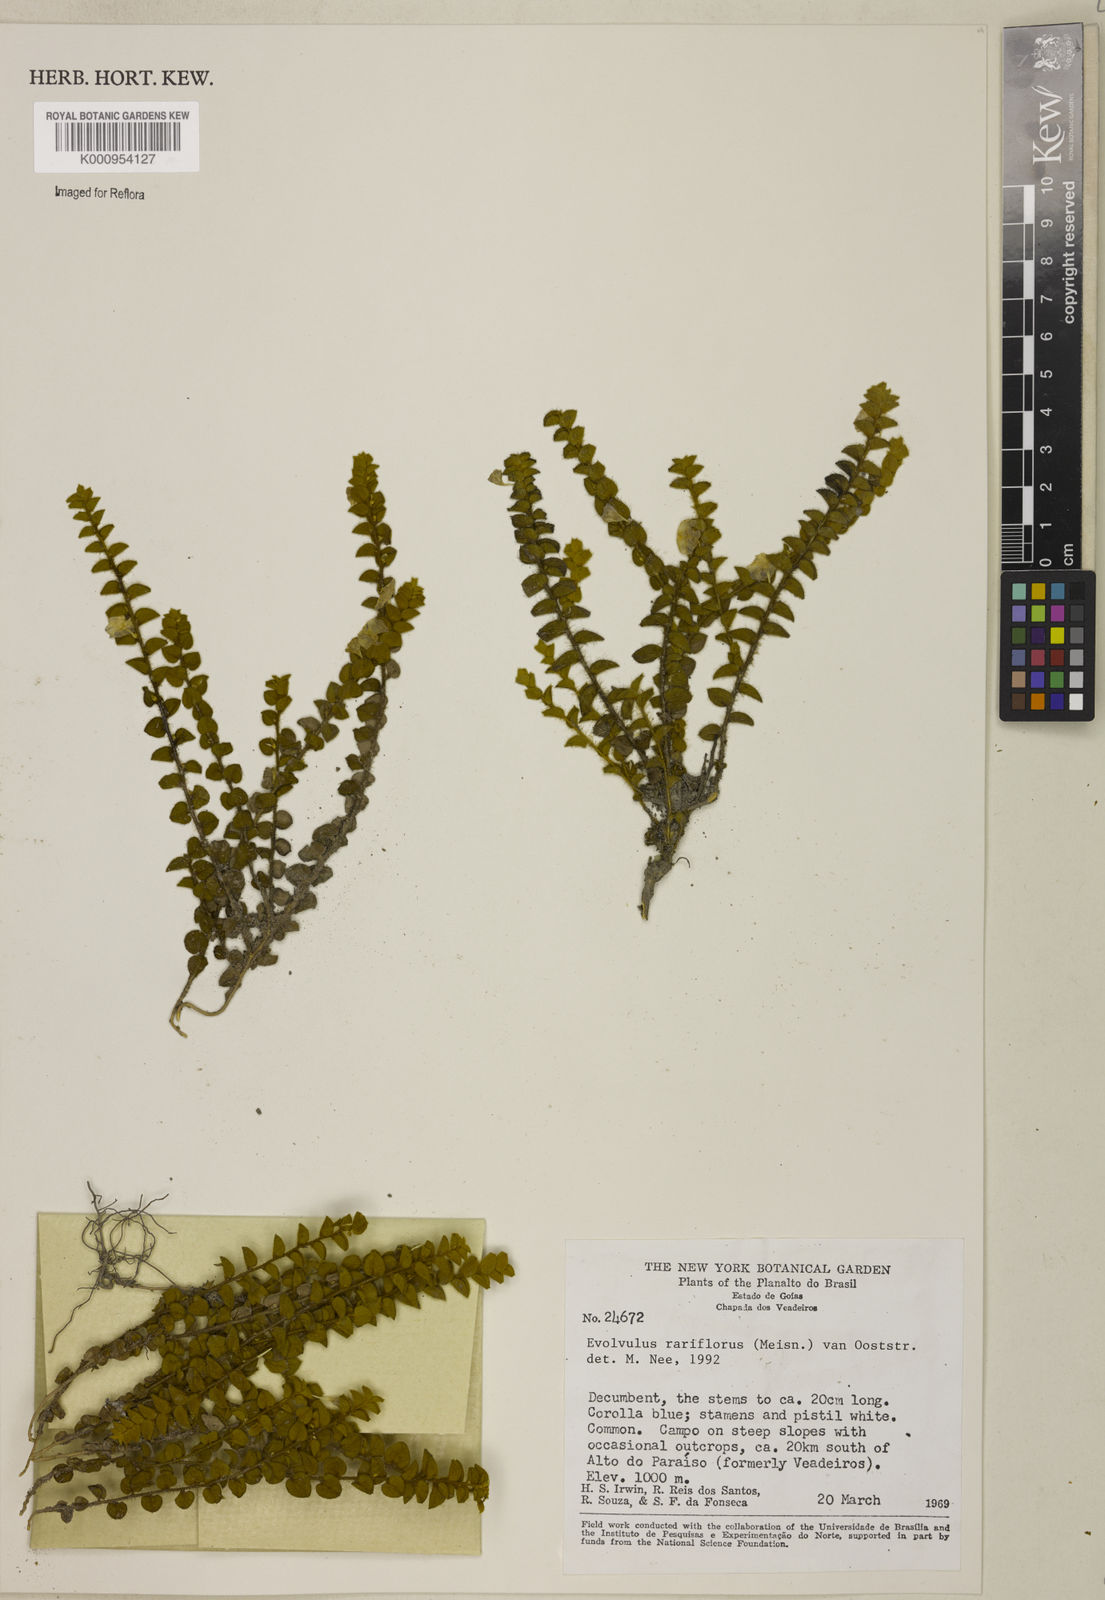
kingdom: Plantae
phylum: Tracheophyta
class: Magnoliopsida
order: Solanales
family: Convolvulaceae
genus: Evolvulus
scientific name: Evolvulus rariflorus
